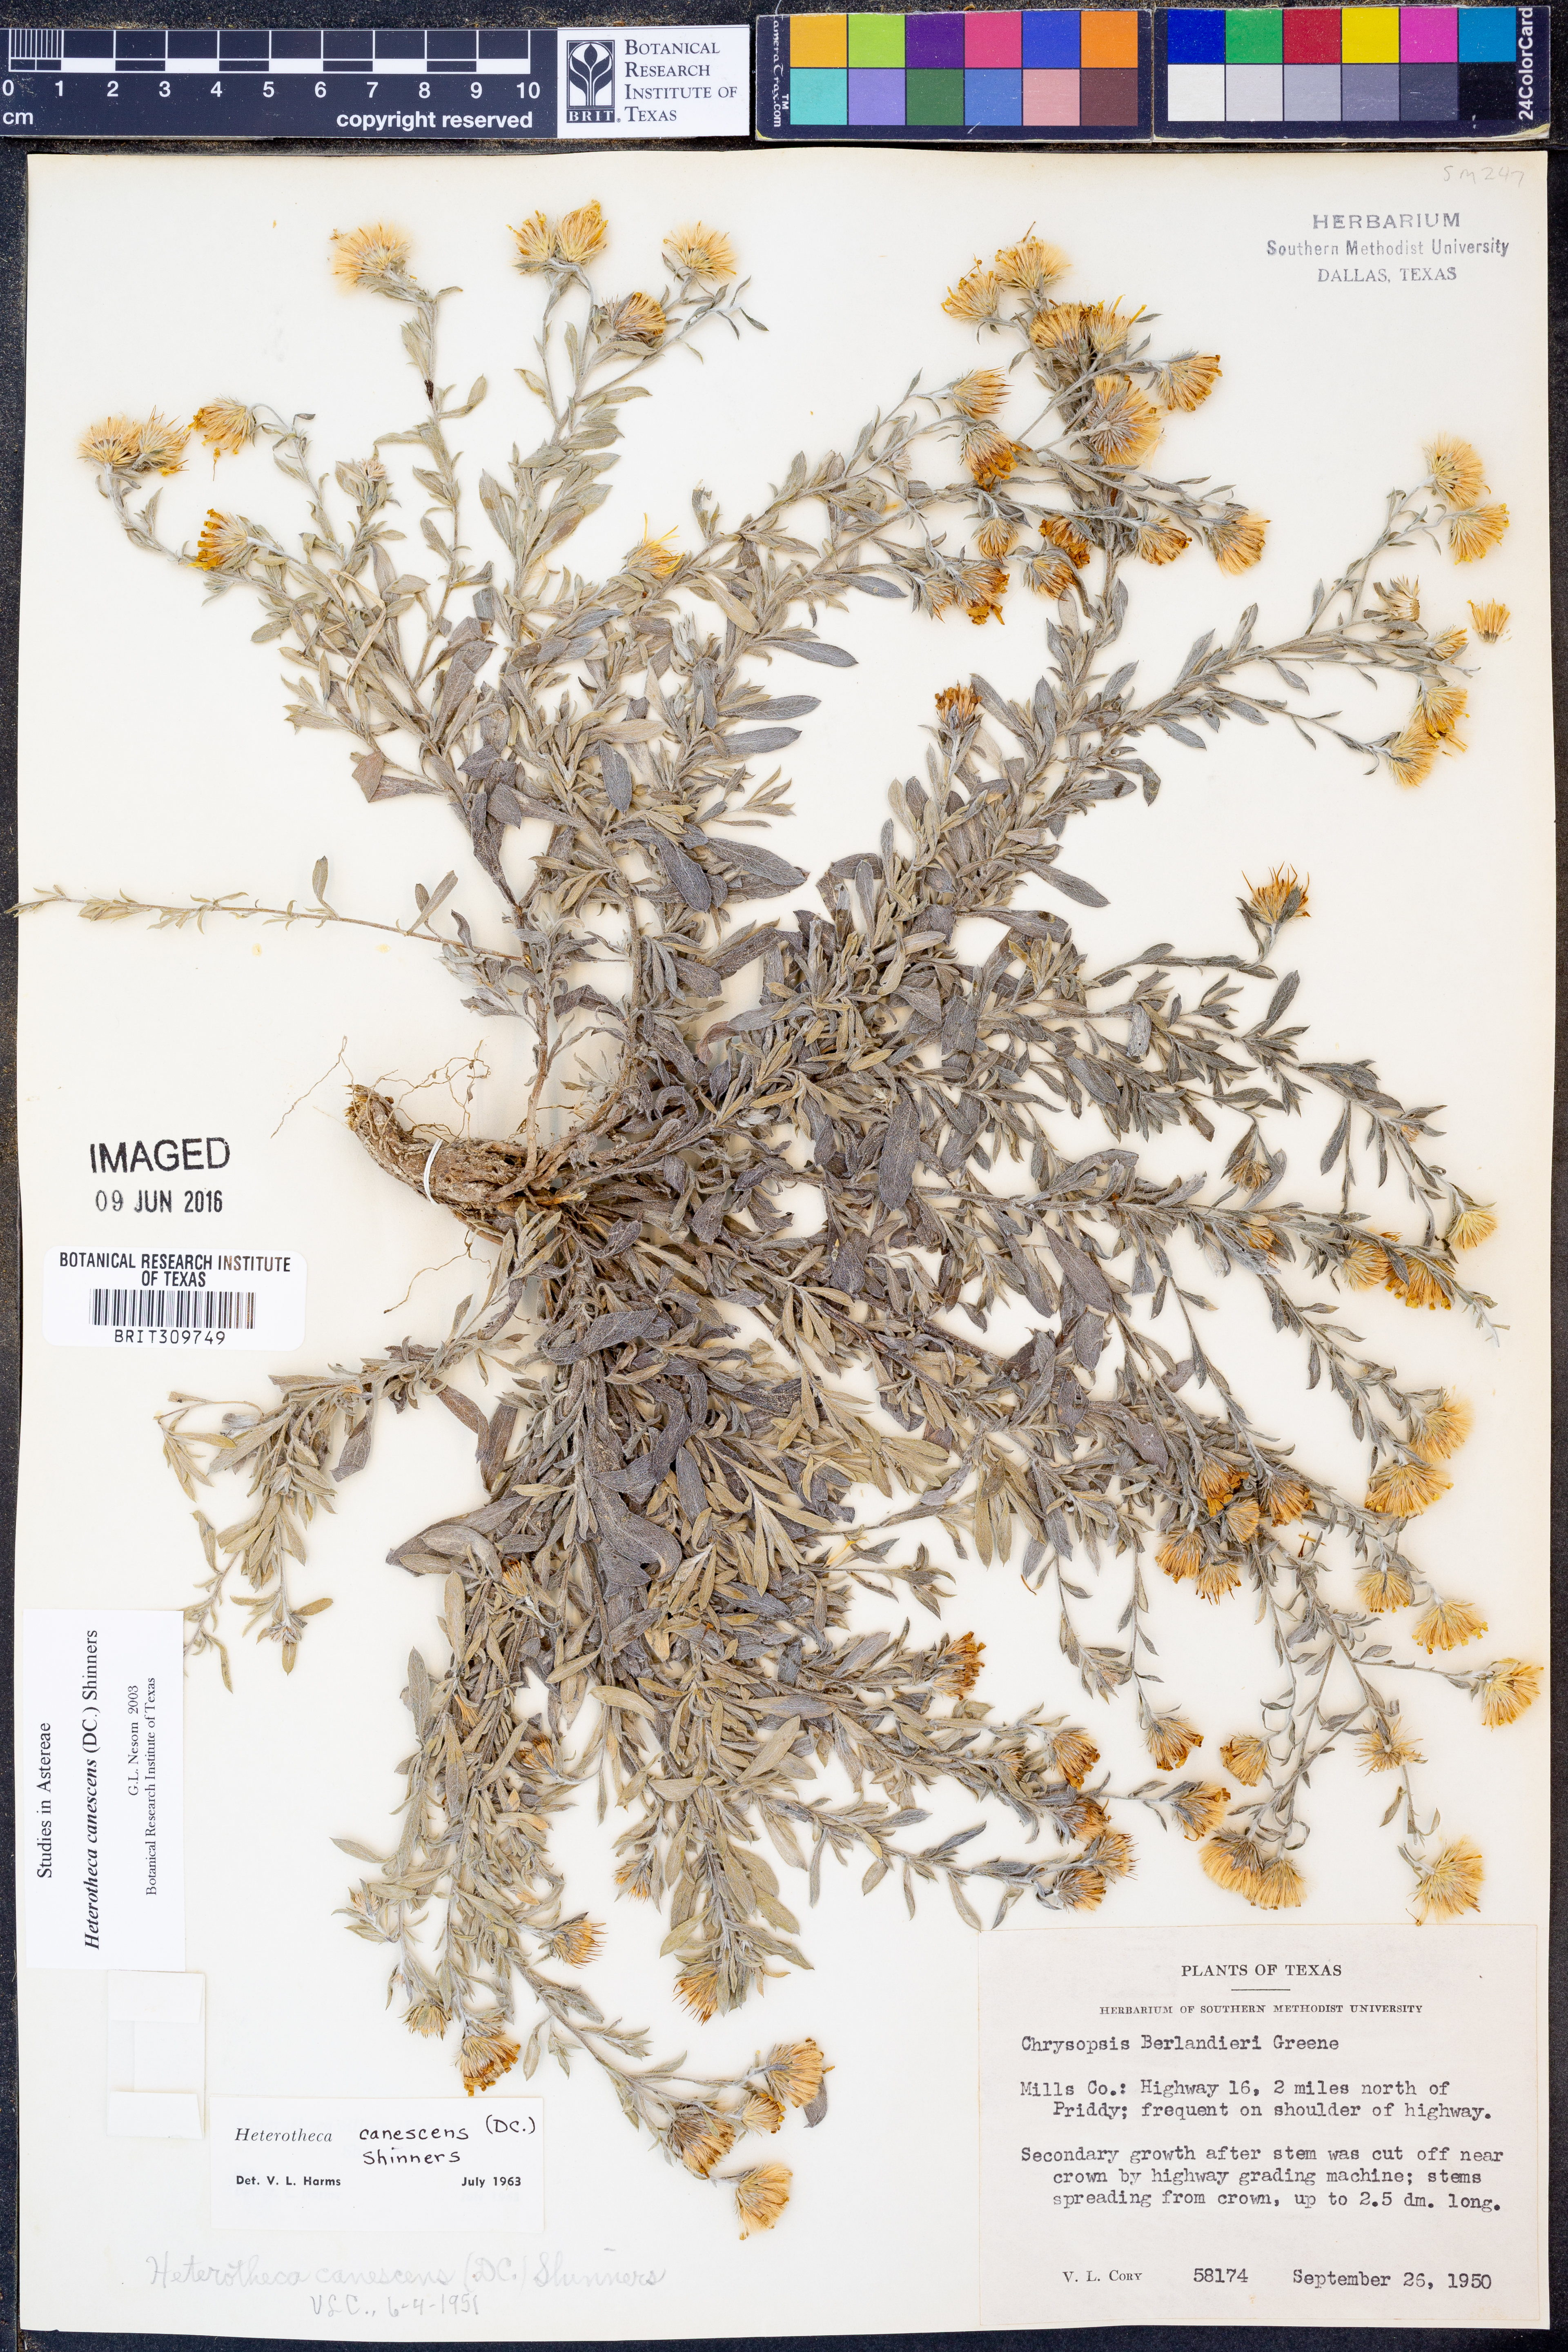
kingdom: Plantae
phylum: Tracheophyta
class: Magnoliopsida
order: Asterales
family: Asteraceae
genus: Heterotheca
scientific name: Heterotheca canescens
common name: Hoary golden-aster
